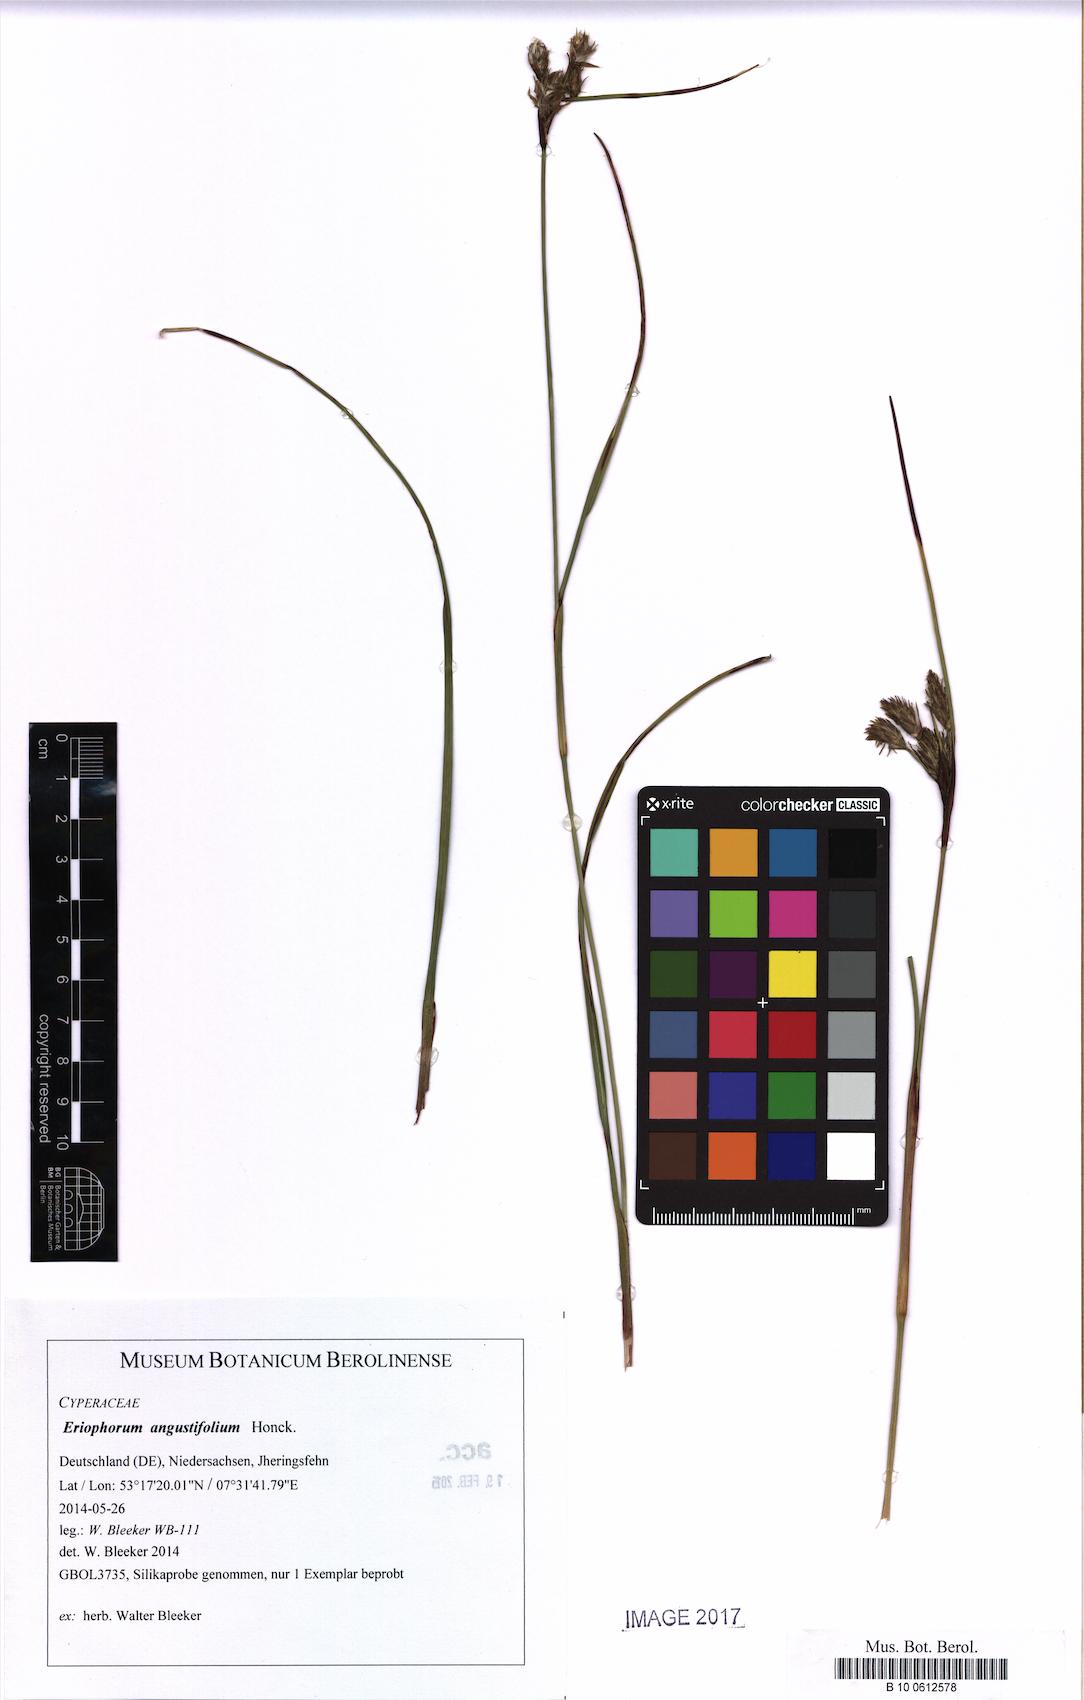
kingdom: Plantae
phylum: Tracheophyta
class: Liliopsida
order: Poales
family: Cyperaceae
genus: Eriophorum
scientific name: Eriophorum angustifolium
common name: Common cottongrass
